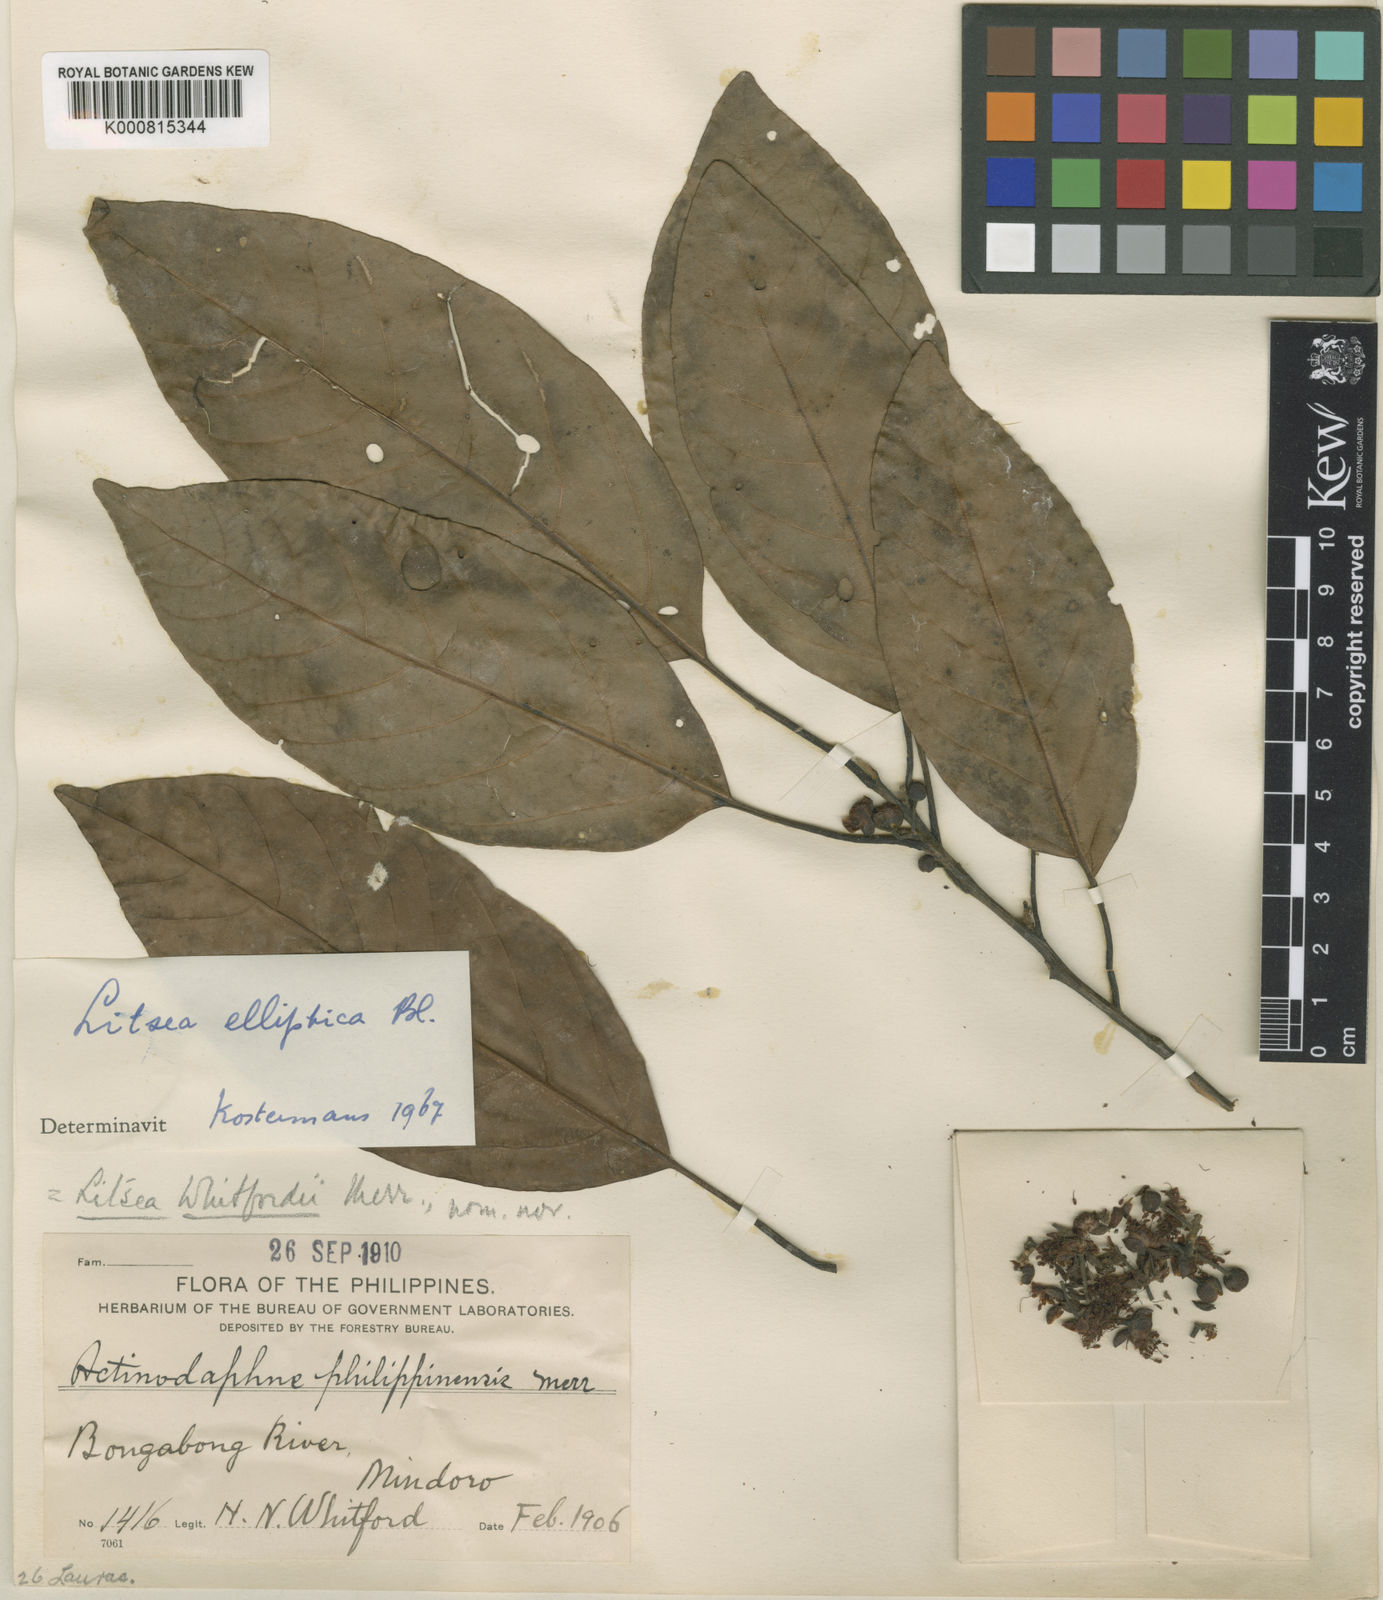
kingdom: Plantae
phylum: Tracheophyta
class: Magnoliopsida
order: Laurales
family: Lauraceae
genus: Litsea
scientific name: Litsea whitfordii
